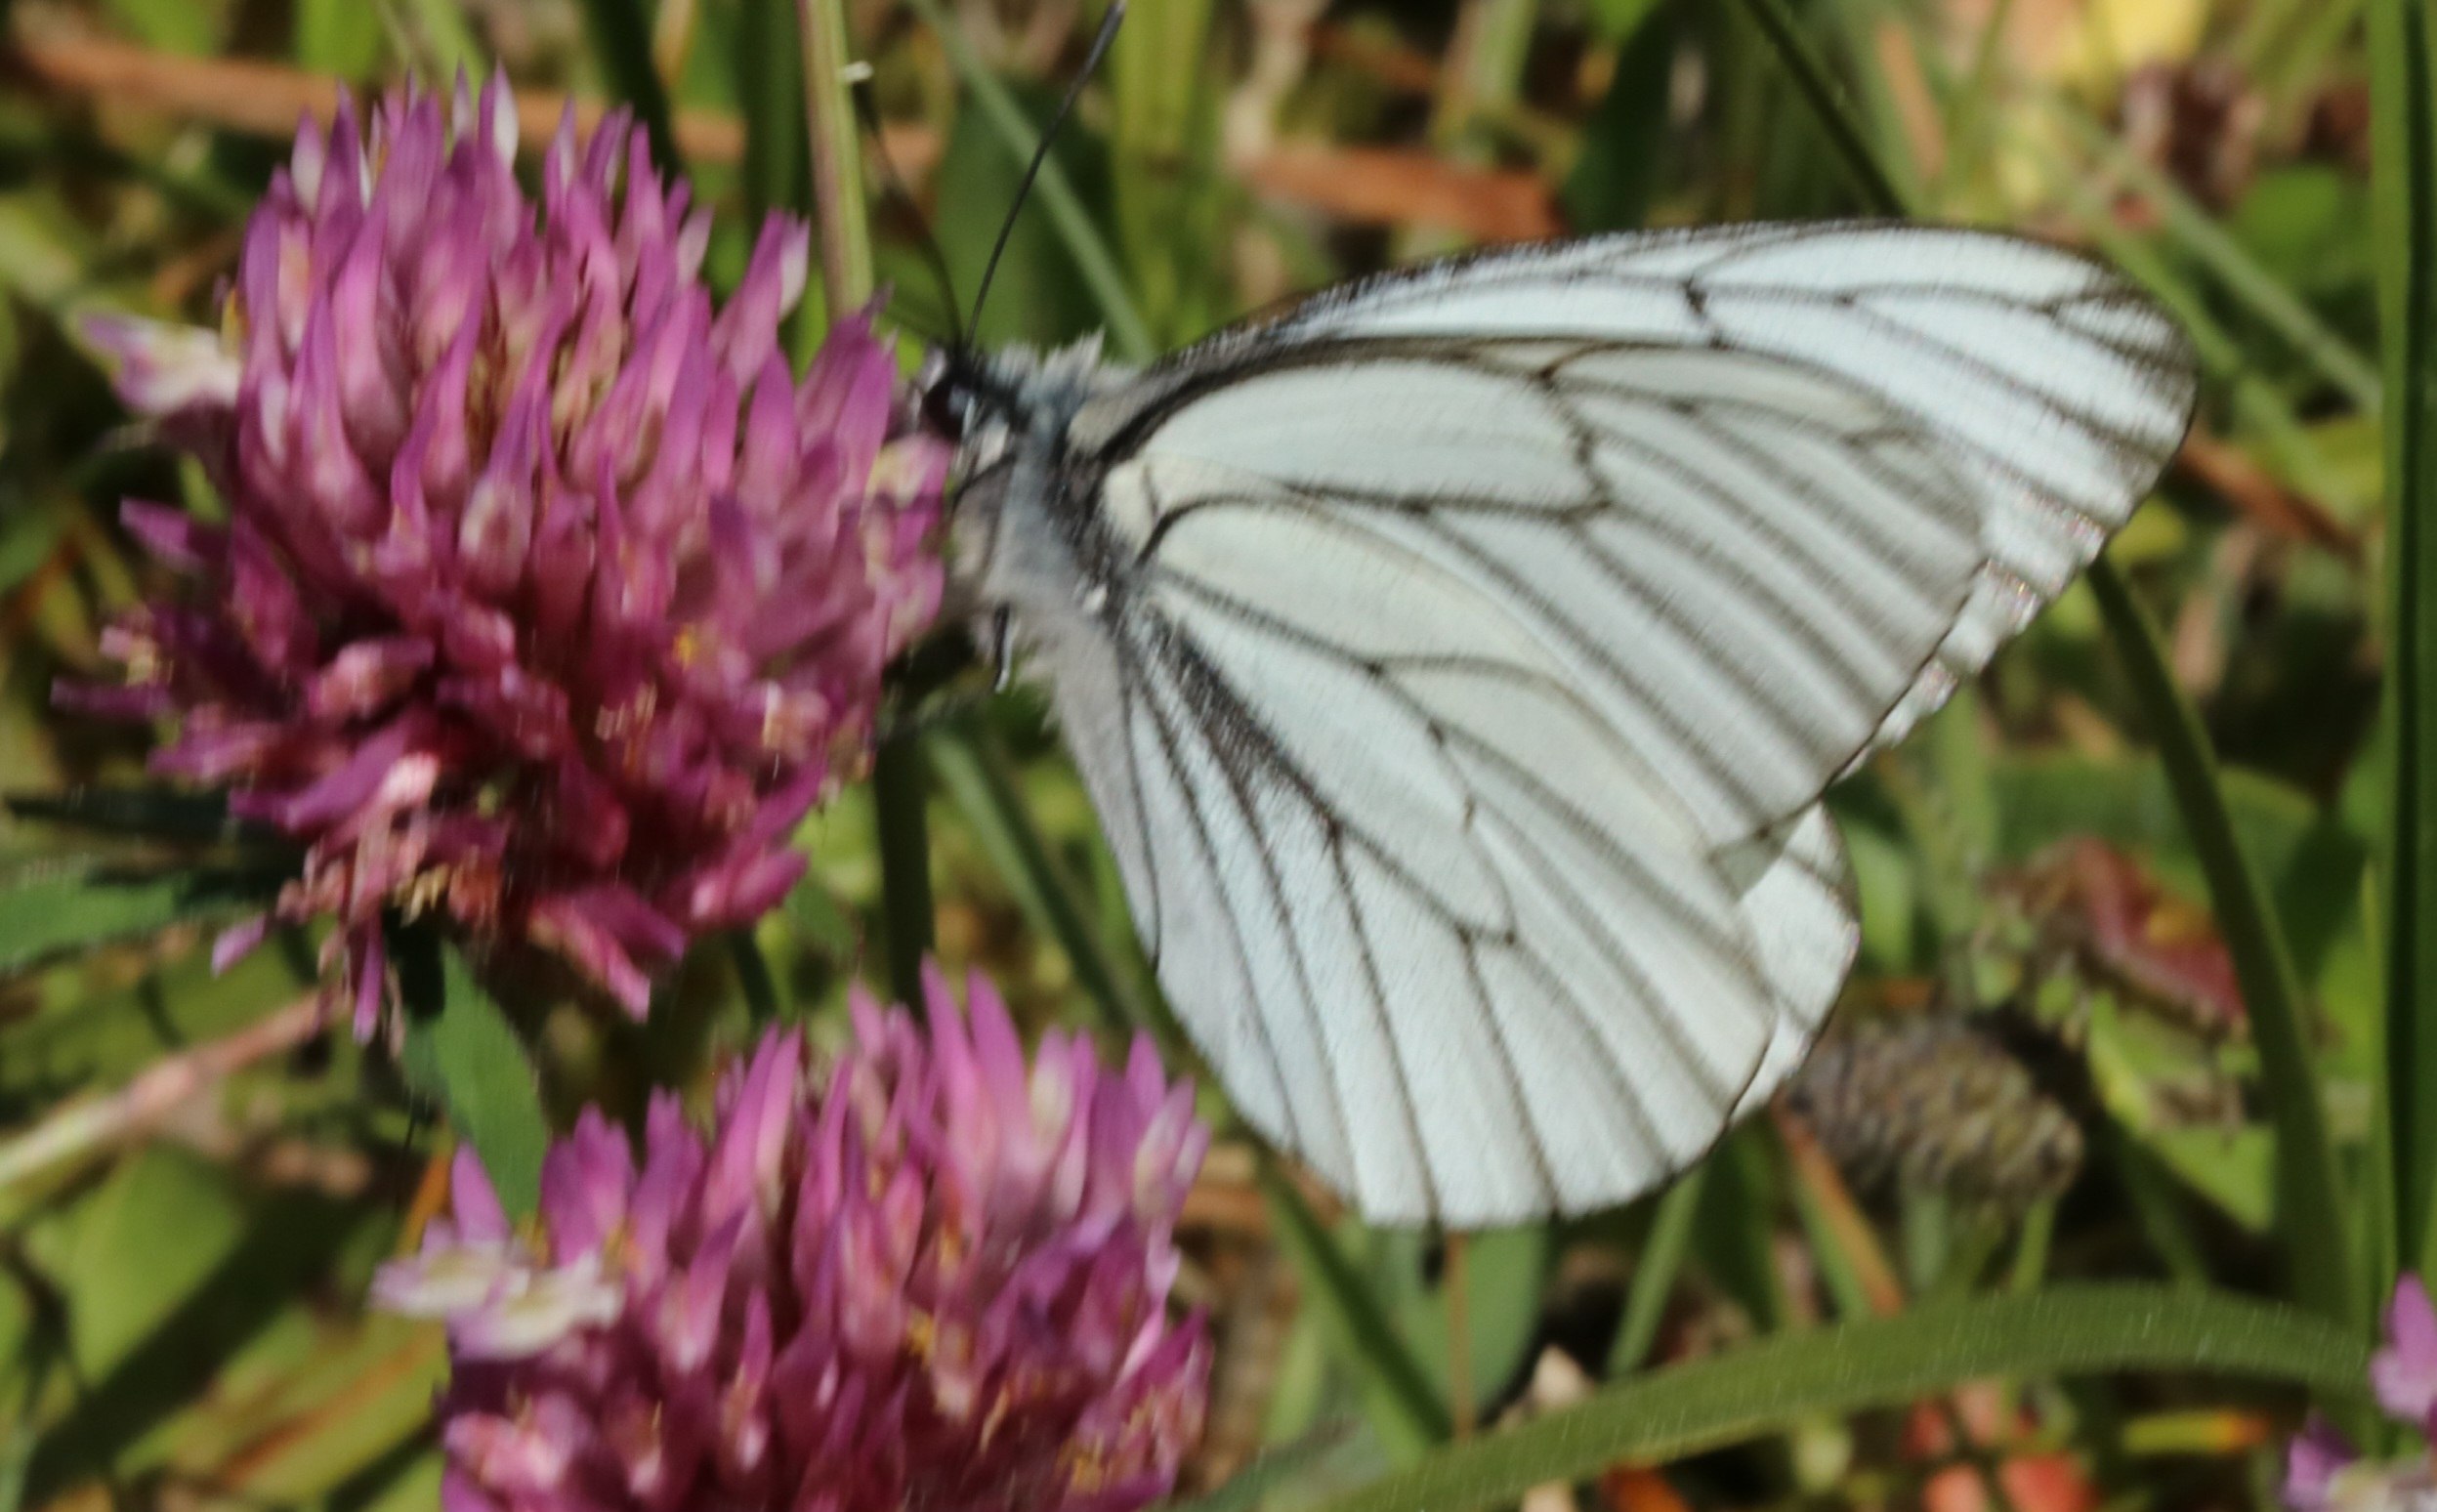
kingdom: Animalia
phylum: Arthropoda
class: Insecta
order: Lepidoptera
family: Pieridae
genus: Aporia
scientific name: Aporia crataegi
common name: Sortåret hvidvinge
